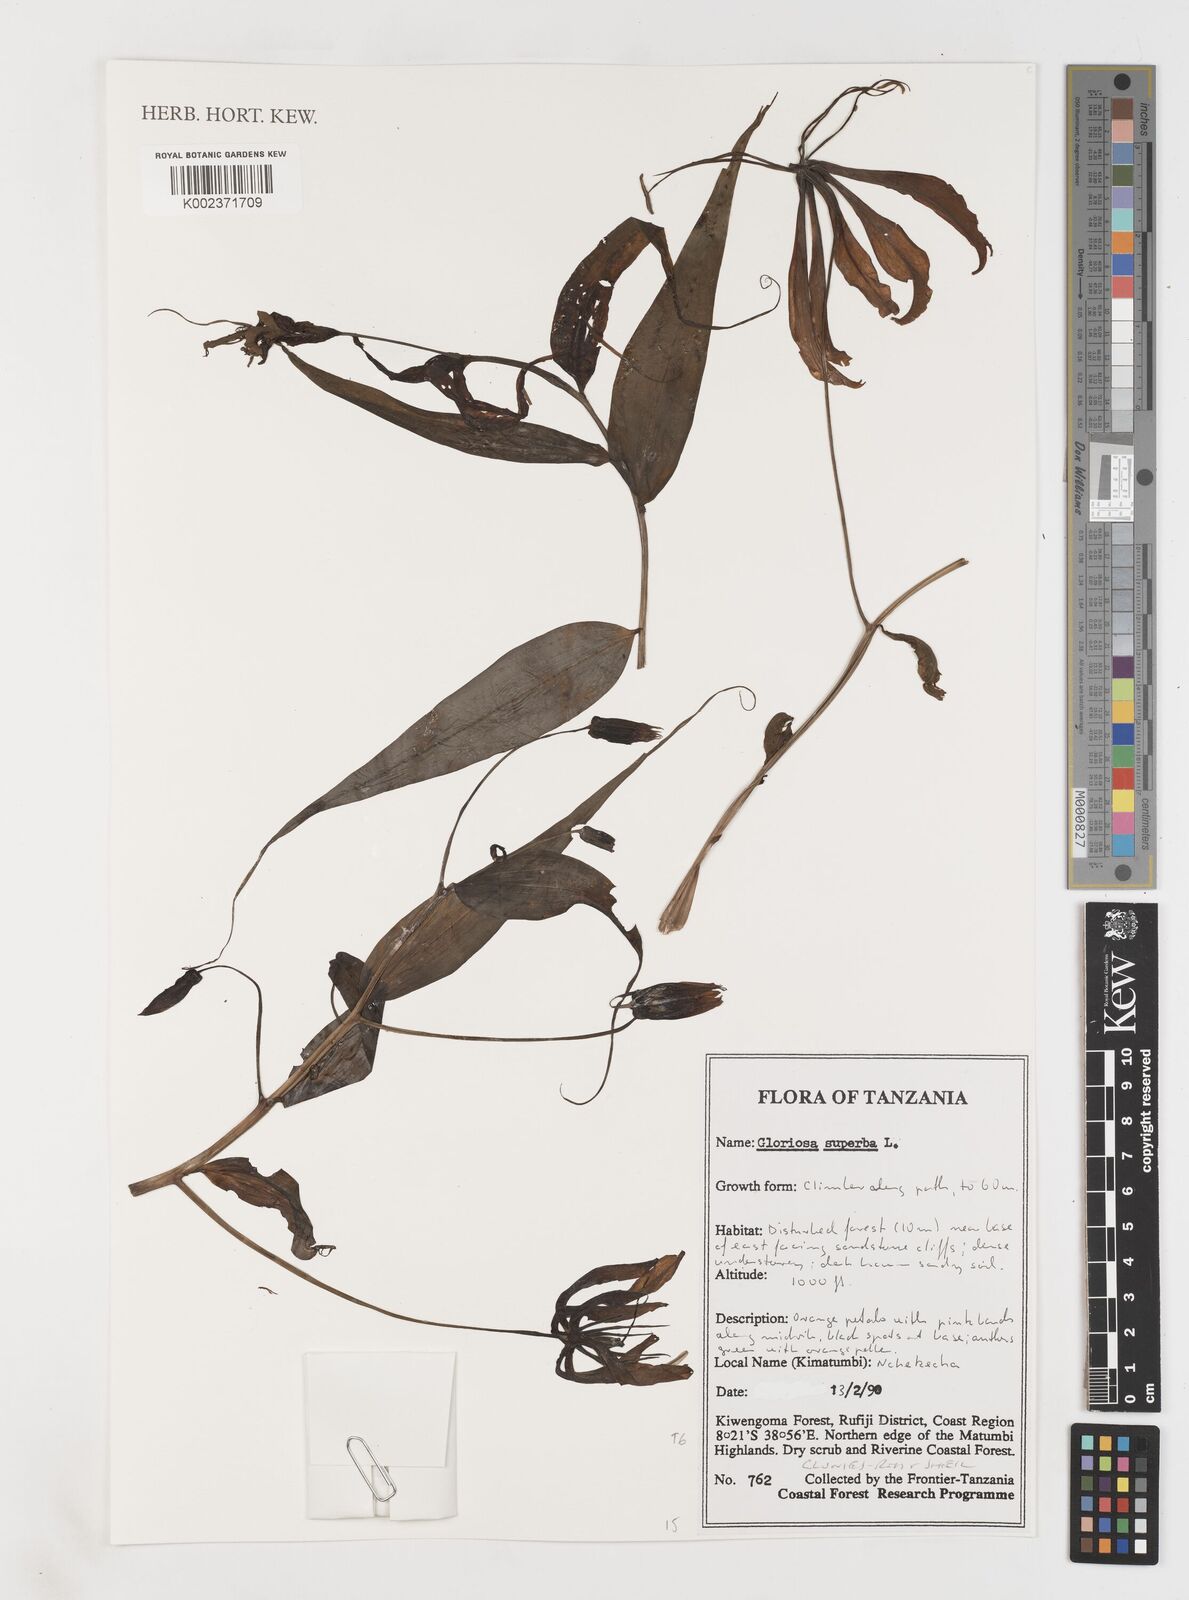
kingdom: Plantae
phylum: Tracheophyta
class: Liliopsida
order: Liliales
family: Colchicaceae
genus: Gloriosa
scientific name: Gloriosa simplex
